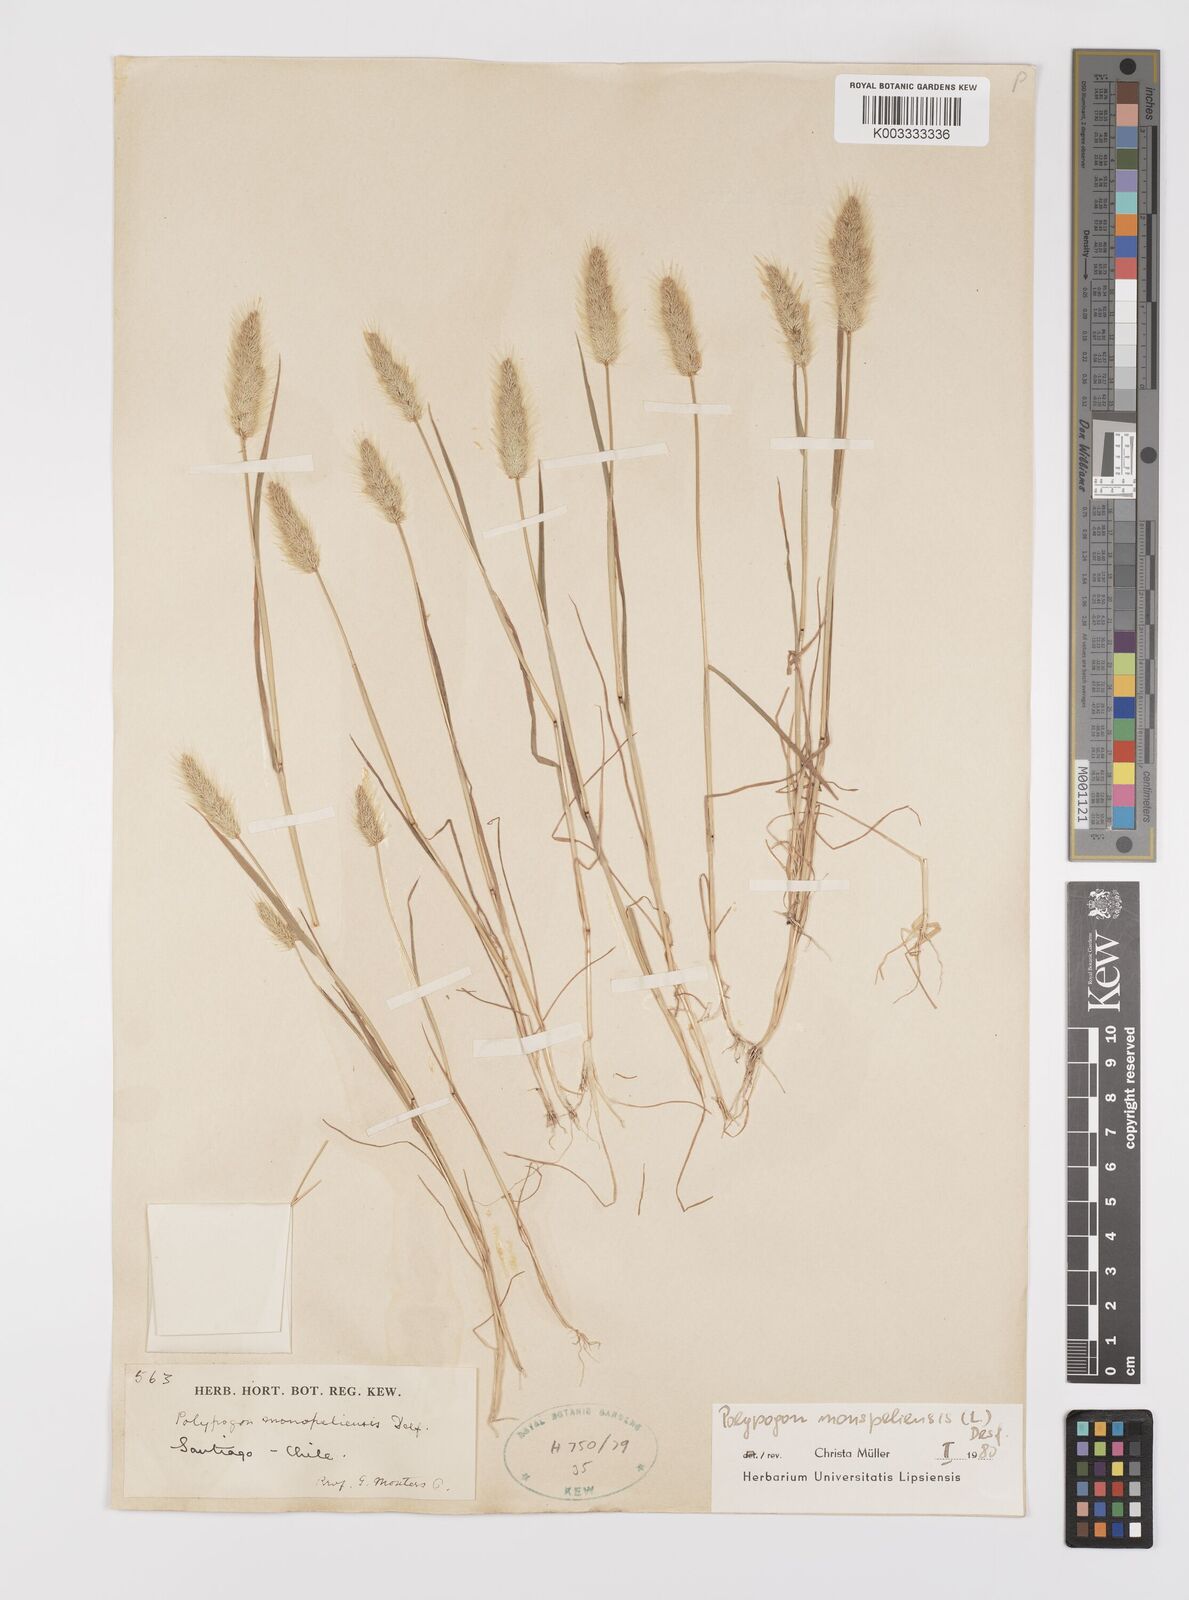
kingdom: Plantae
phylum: Tracheophyta
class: Liliopsida
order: Poales
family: Poaceae
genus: Polypogon
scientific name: Polypogon monspeliensis
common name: Annual rabbitsfoot grass
